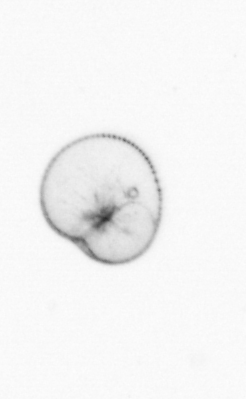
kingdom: Chromista
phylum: Myzozoa
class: Dinophyceae
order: Noctilucales
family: Noctilucaceae
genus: Noctiluca
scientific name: Noctiluca scintillans
